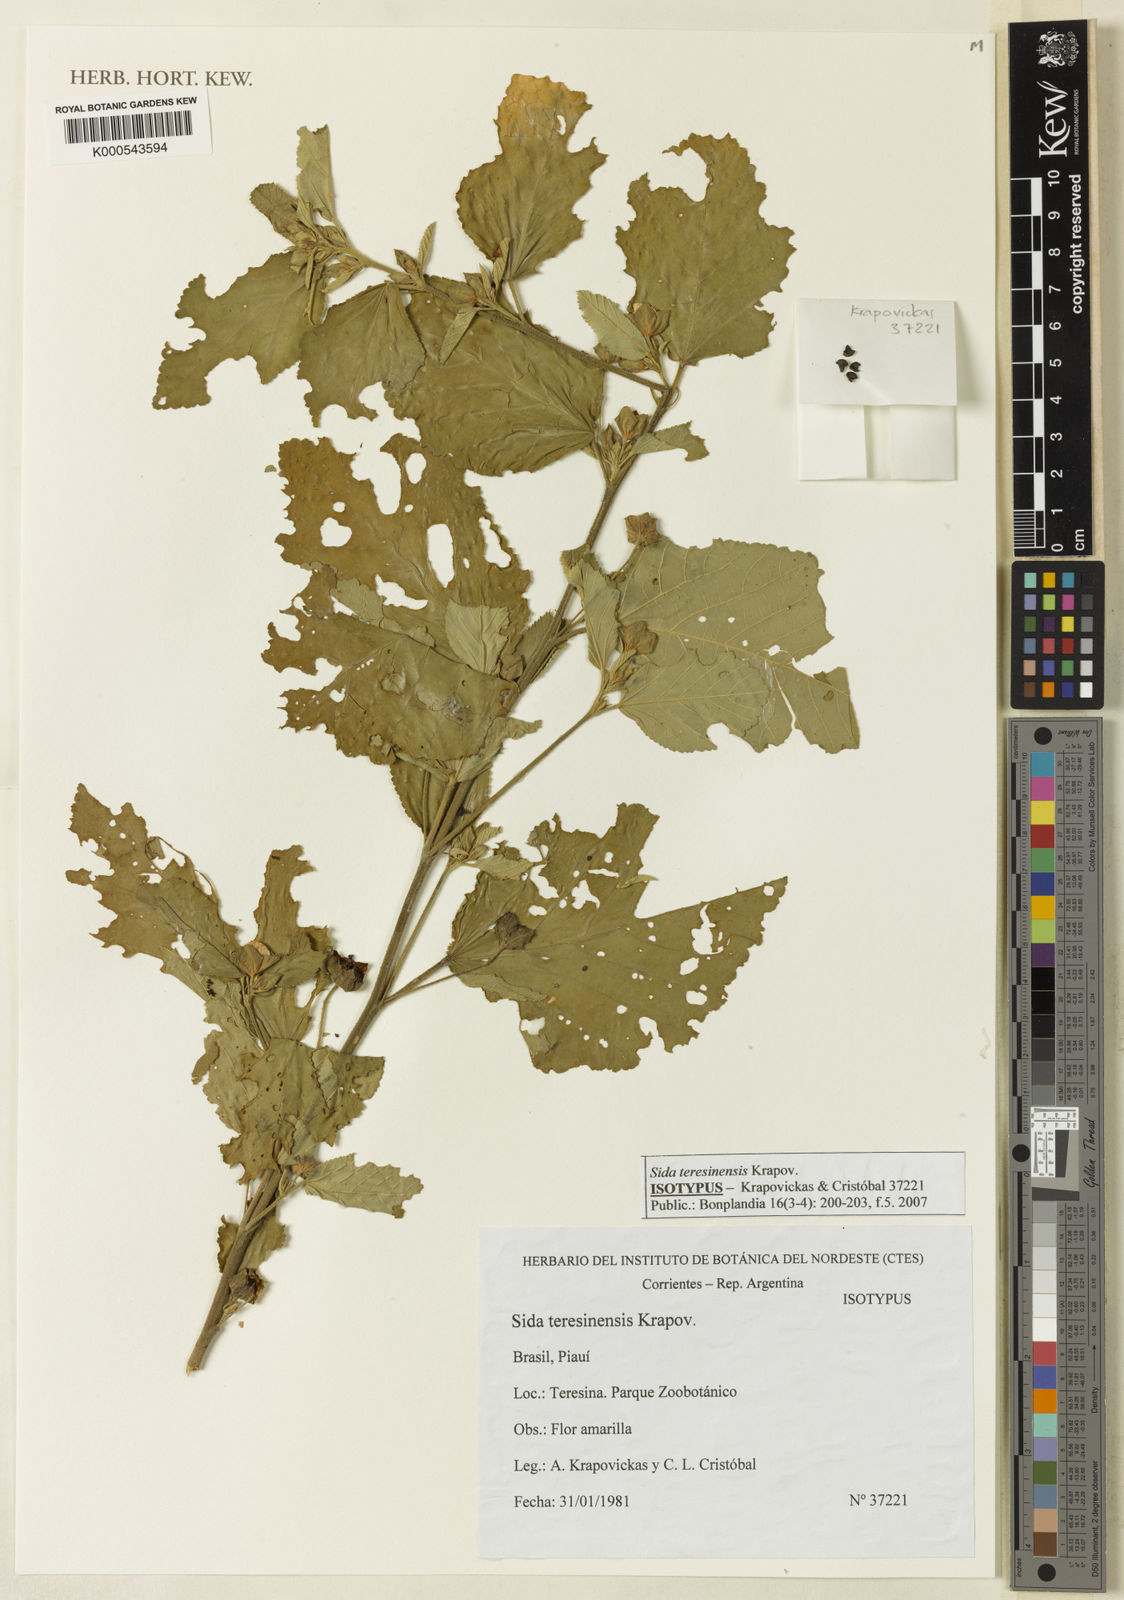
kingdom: Plantae
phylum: Tracheophyta
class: Magnoliopsida
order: Malvales
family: Malvaceae
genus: Sida
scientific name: Sida teresinensis
